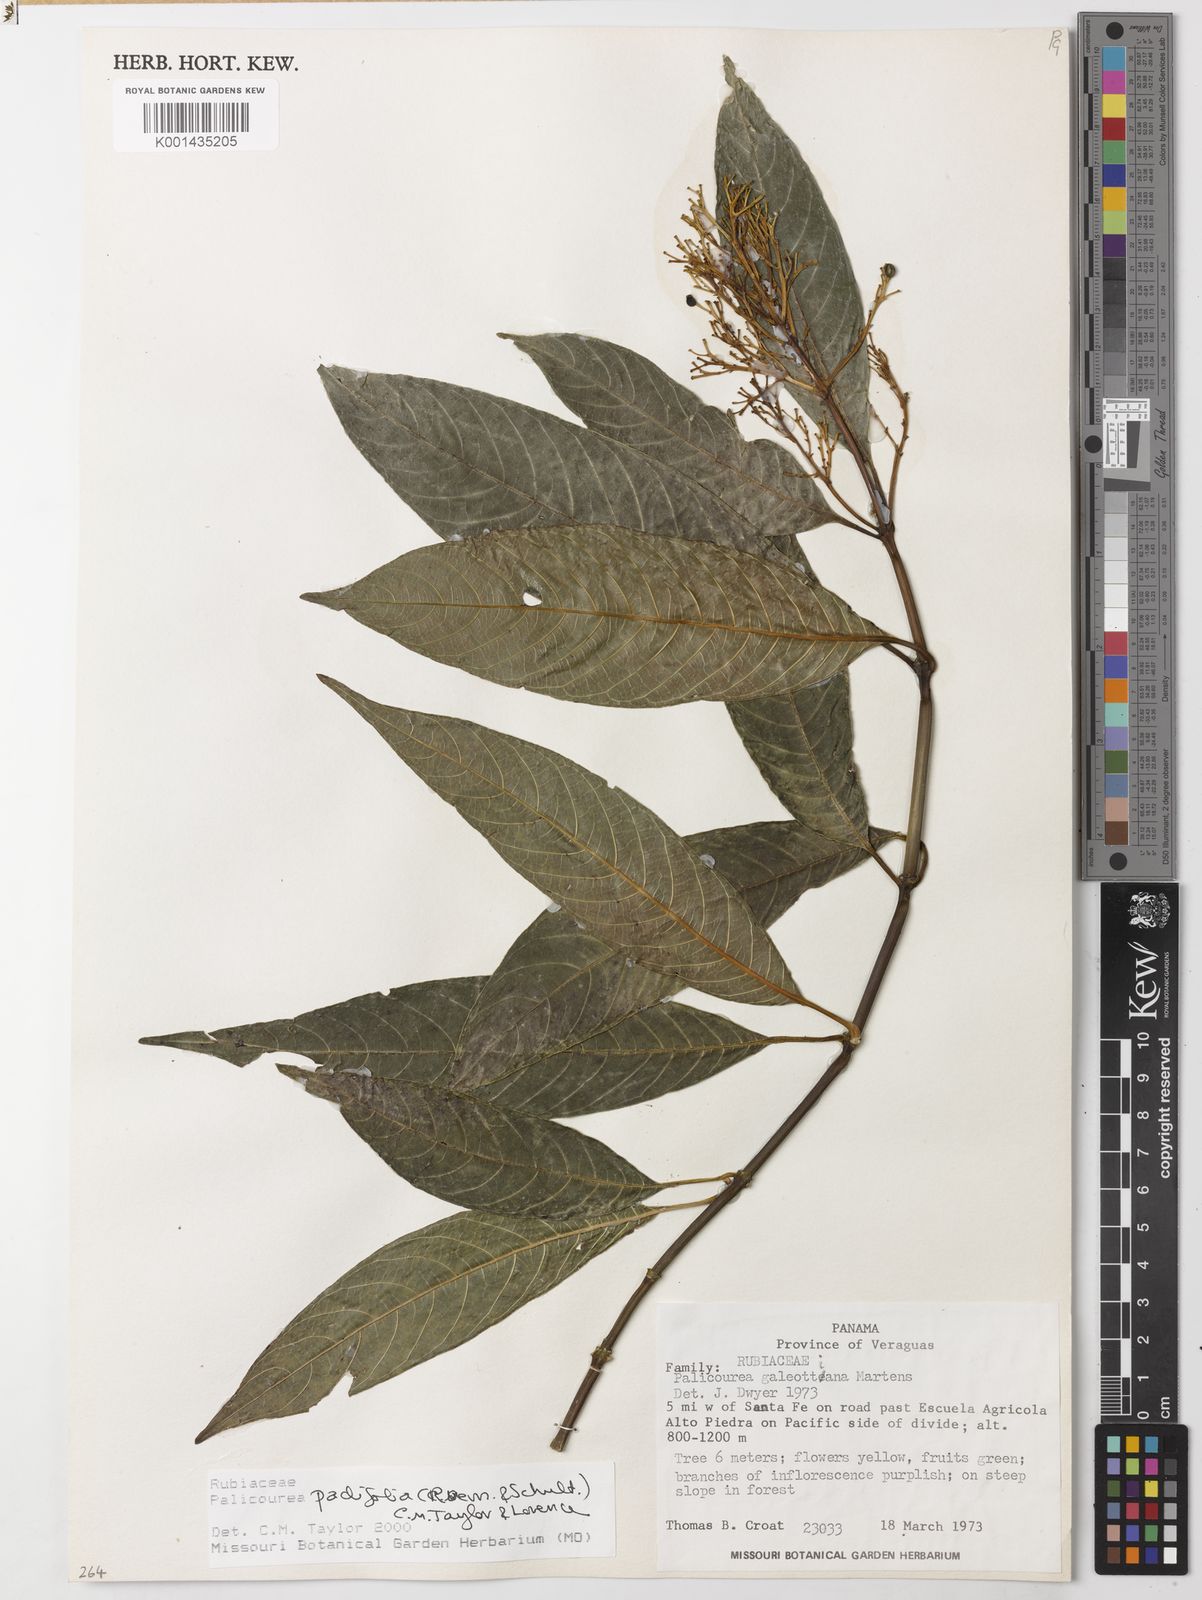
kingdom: Plantae
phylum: Tracheophyta
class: Magnoliopsida
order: Gentianales
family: Rubiaceae
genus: Palicourea
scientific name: Palicourea padifolia
